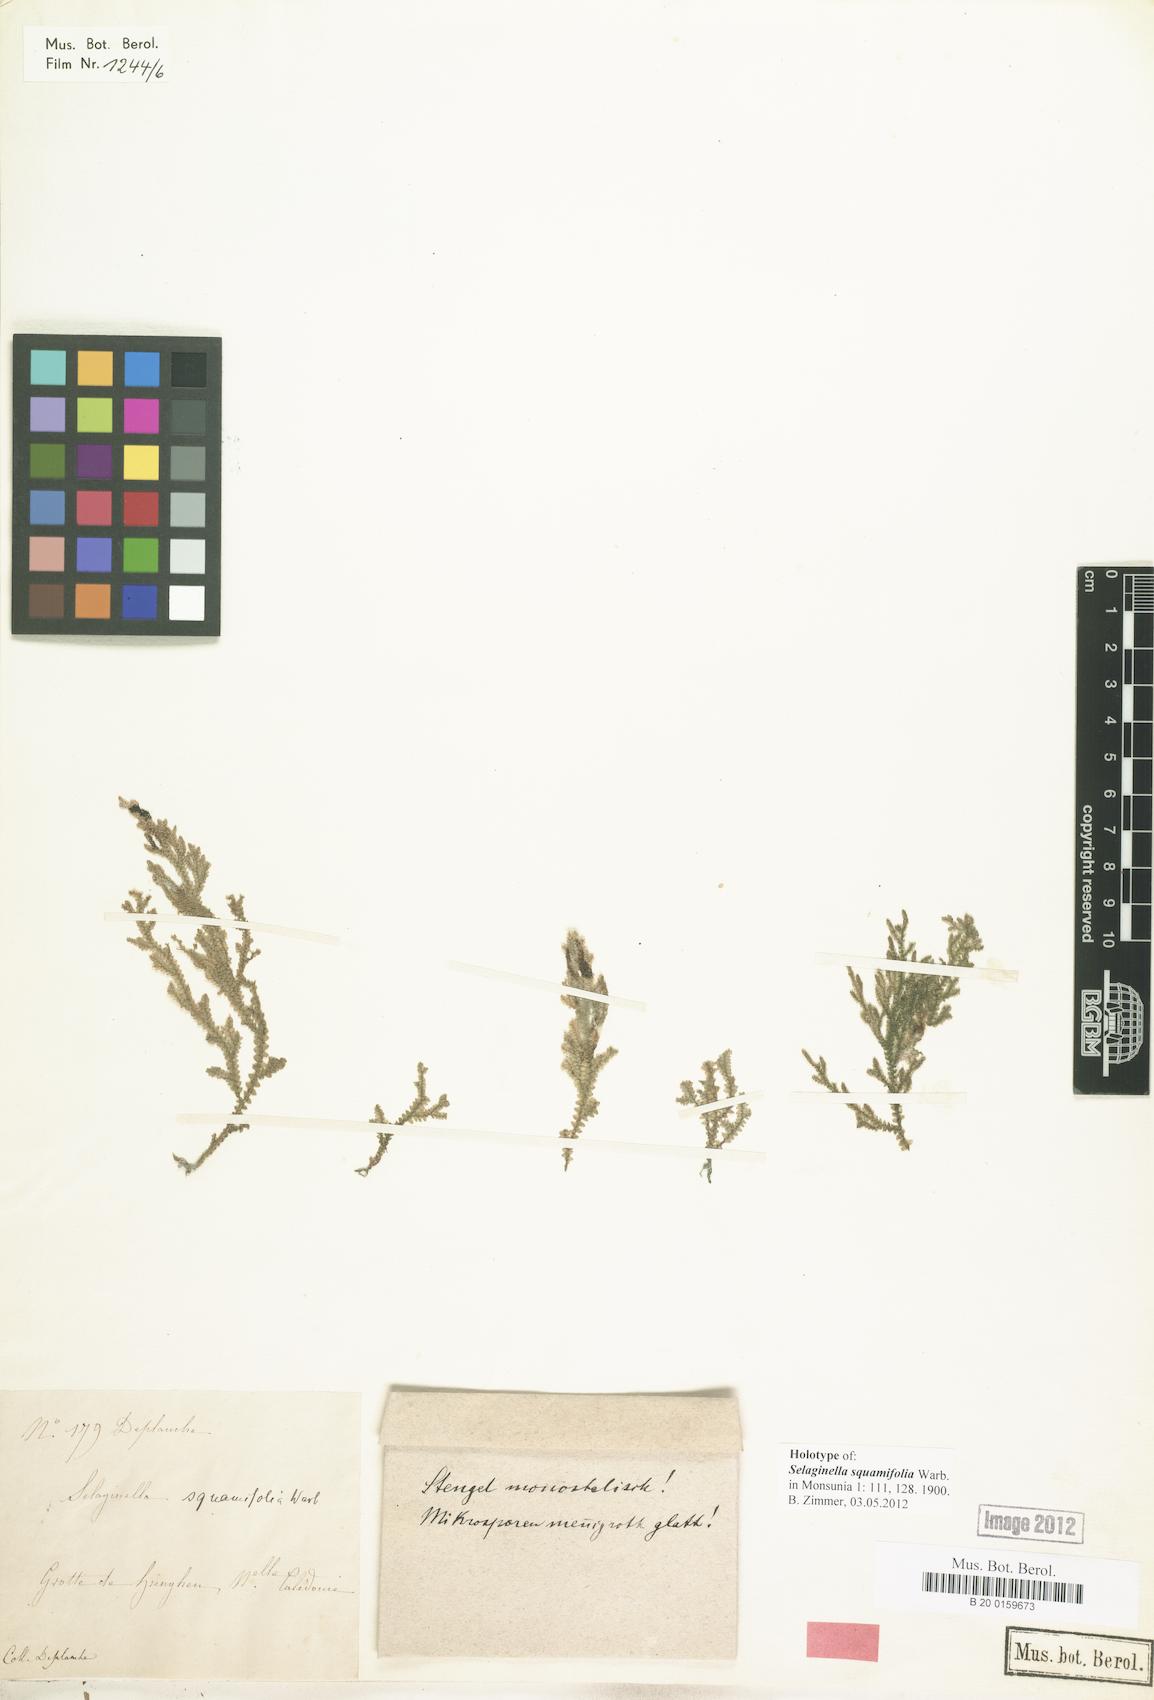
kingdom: Plantae
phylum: Tracheophyta
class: Lycopodiopsida
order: Selaginellales
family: Selaginellaceae
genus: Selaginella
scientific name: Selaginella neocaledonica
